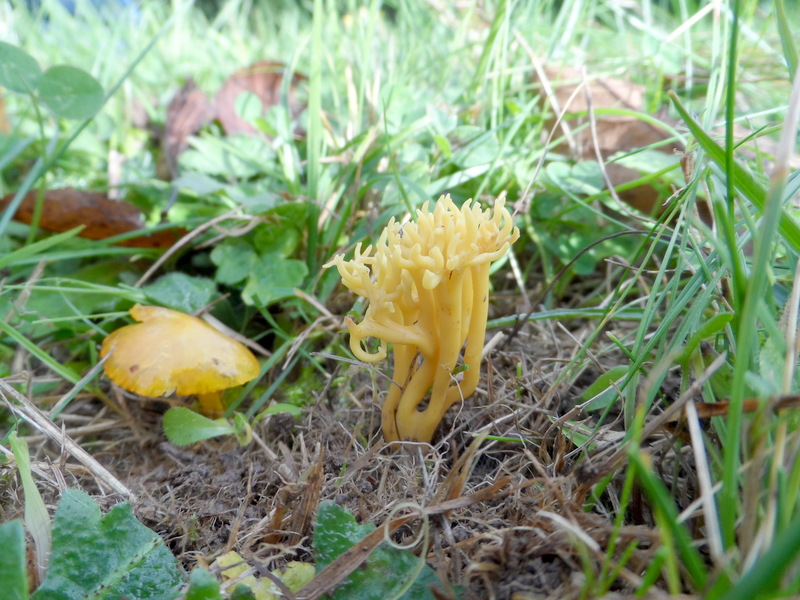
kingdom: Fungi
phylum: Basidiomycota
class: Agaricomycetes
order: Agaricales
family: Clavariaceae
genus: Clavulinopsis
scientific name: Clavulinopsis corniculata
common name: Meadow coral
